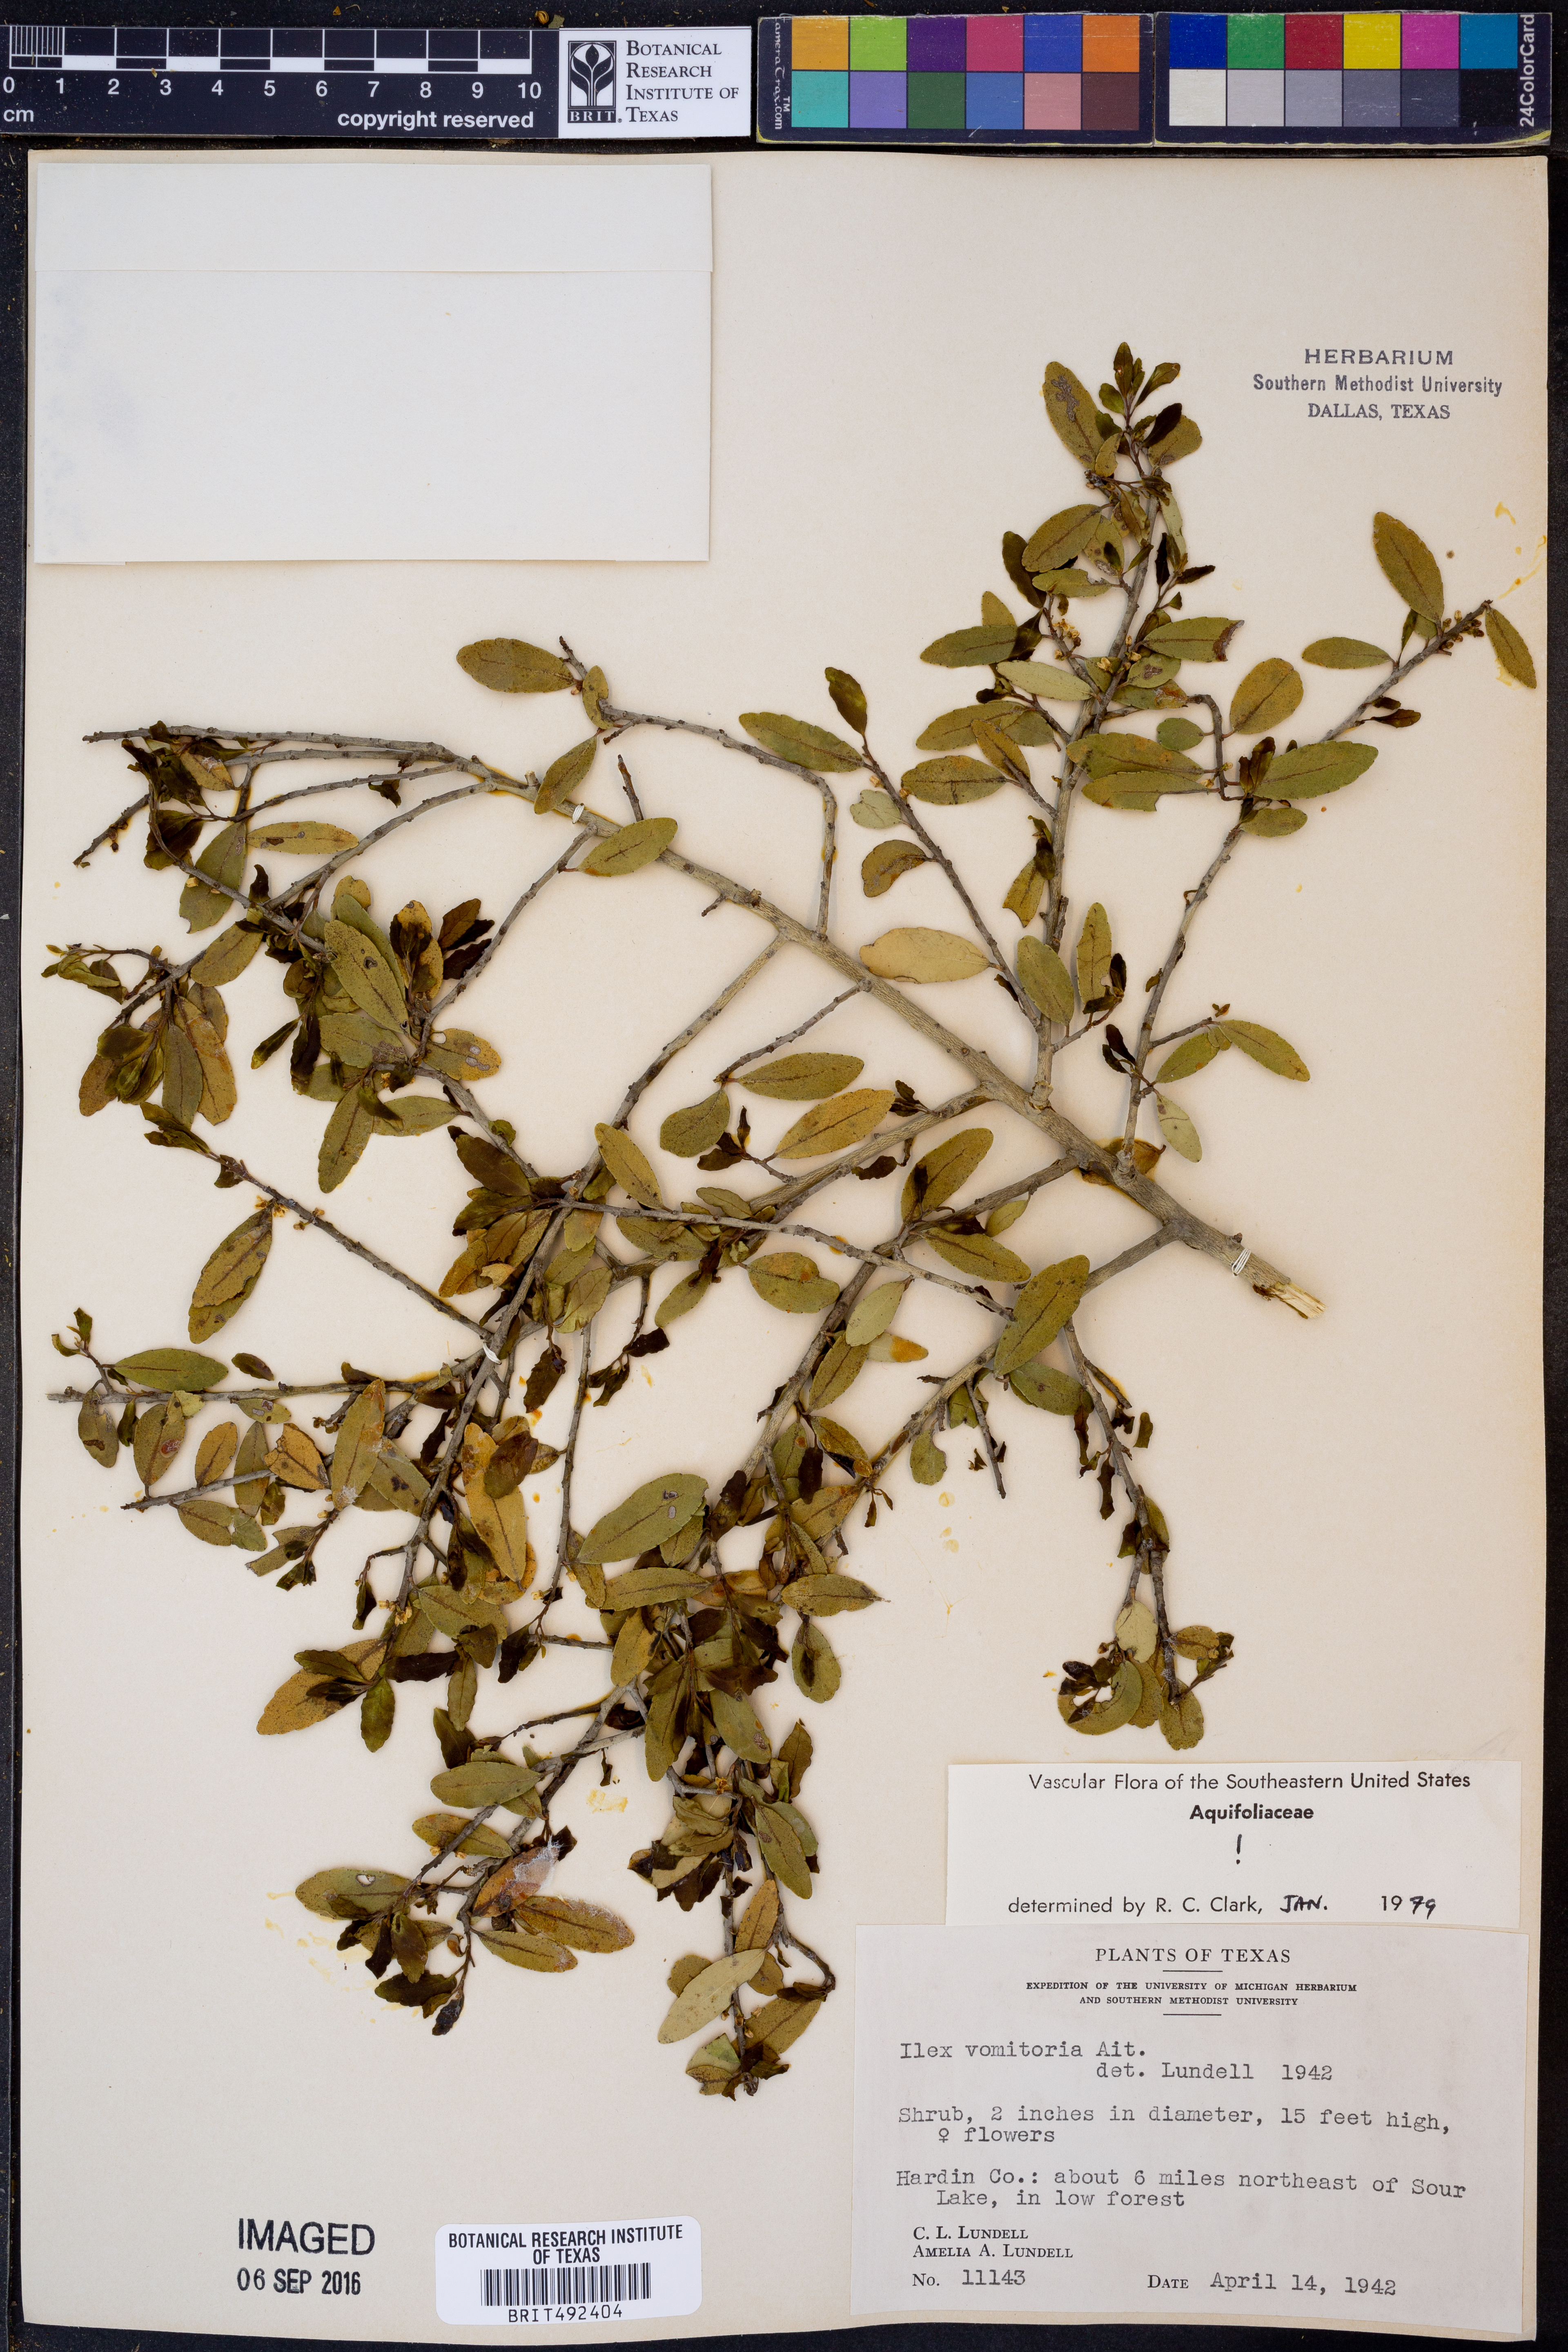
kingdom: Plantae
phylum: Tracheophyta
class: Magnoliopsida
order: Aquifoliales
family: Aquifoliaceae
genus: Ilex
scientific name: Ilex vomitoria
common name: Yaupon holly
